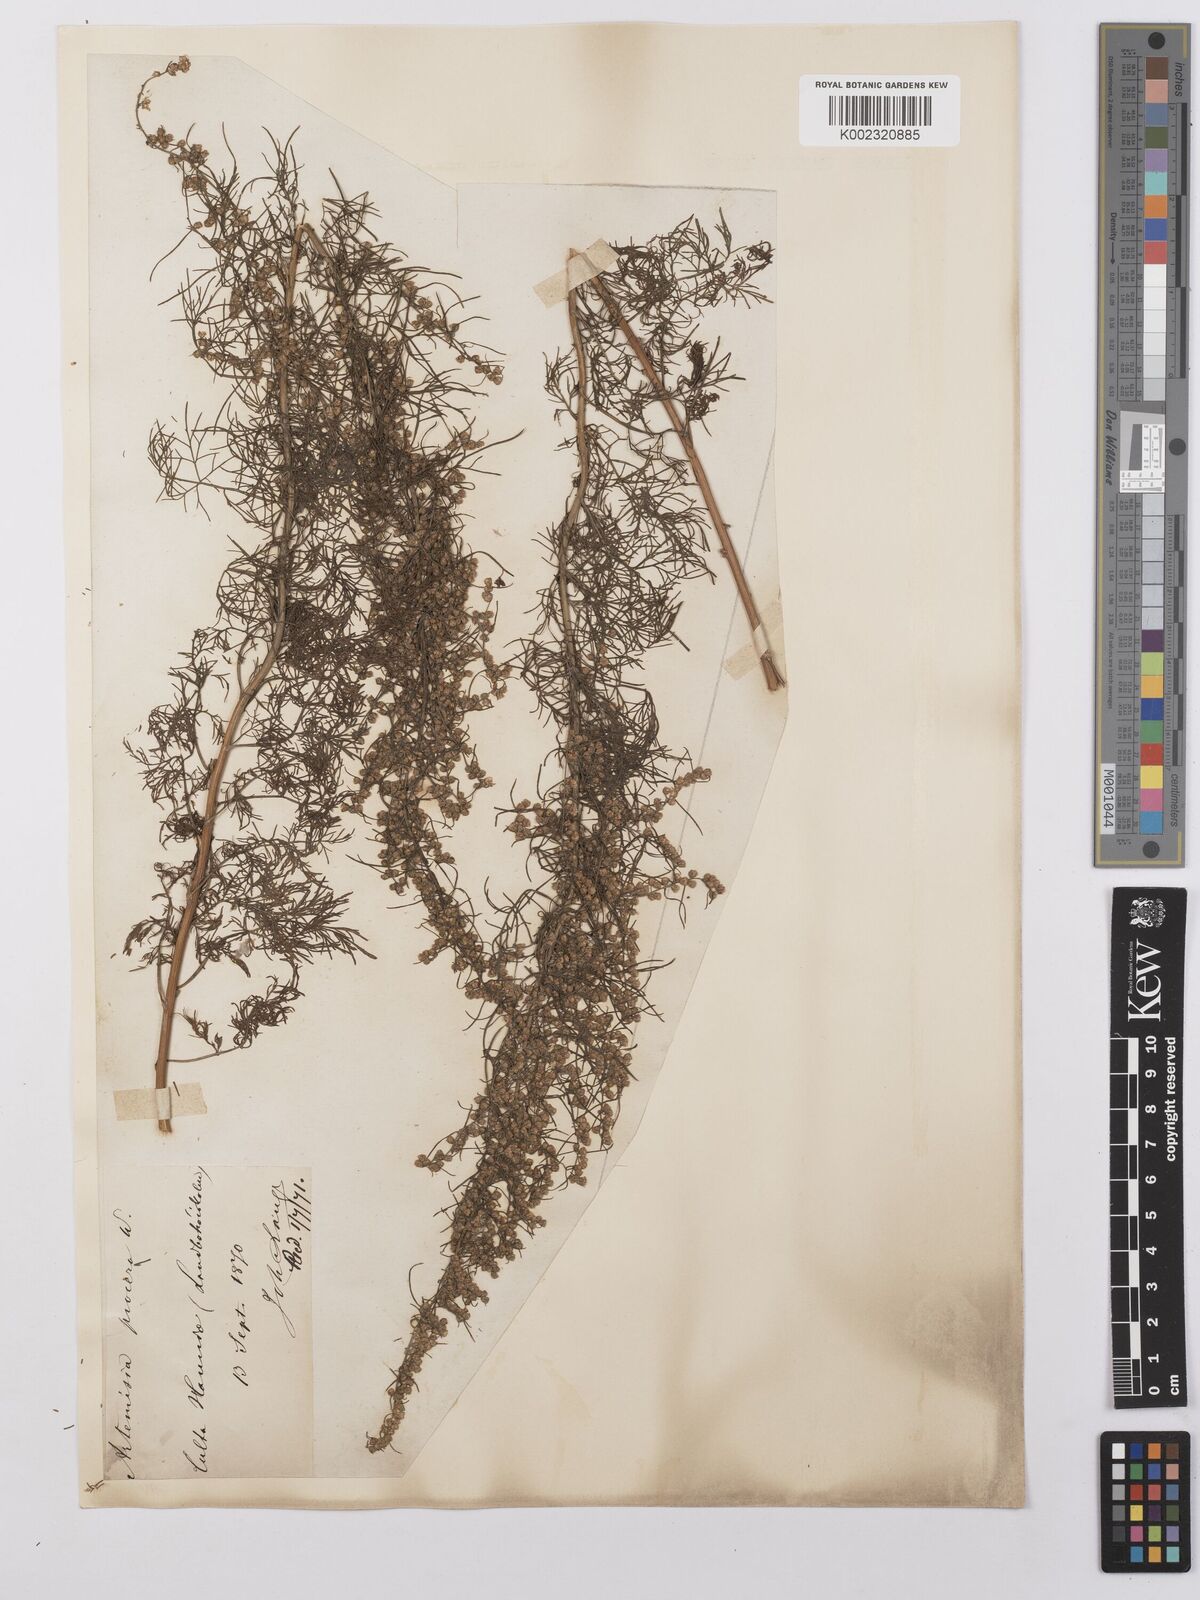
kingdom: Plantae
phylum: Tracheophyta
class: Magnoliopsida
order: Asterales
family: Asteraceae
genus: Artemisia
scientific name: Artemisia abrotanum
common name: Southernwood
